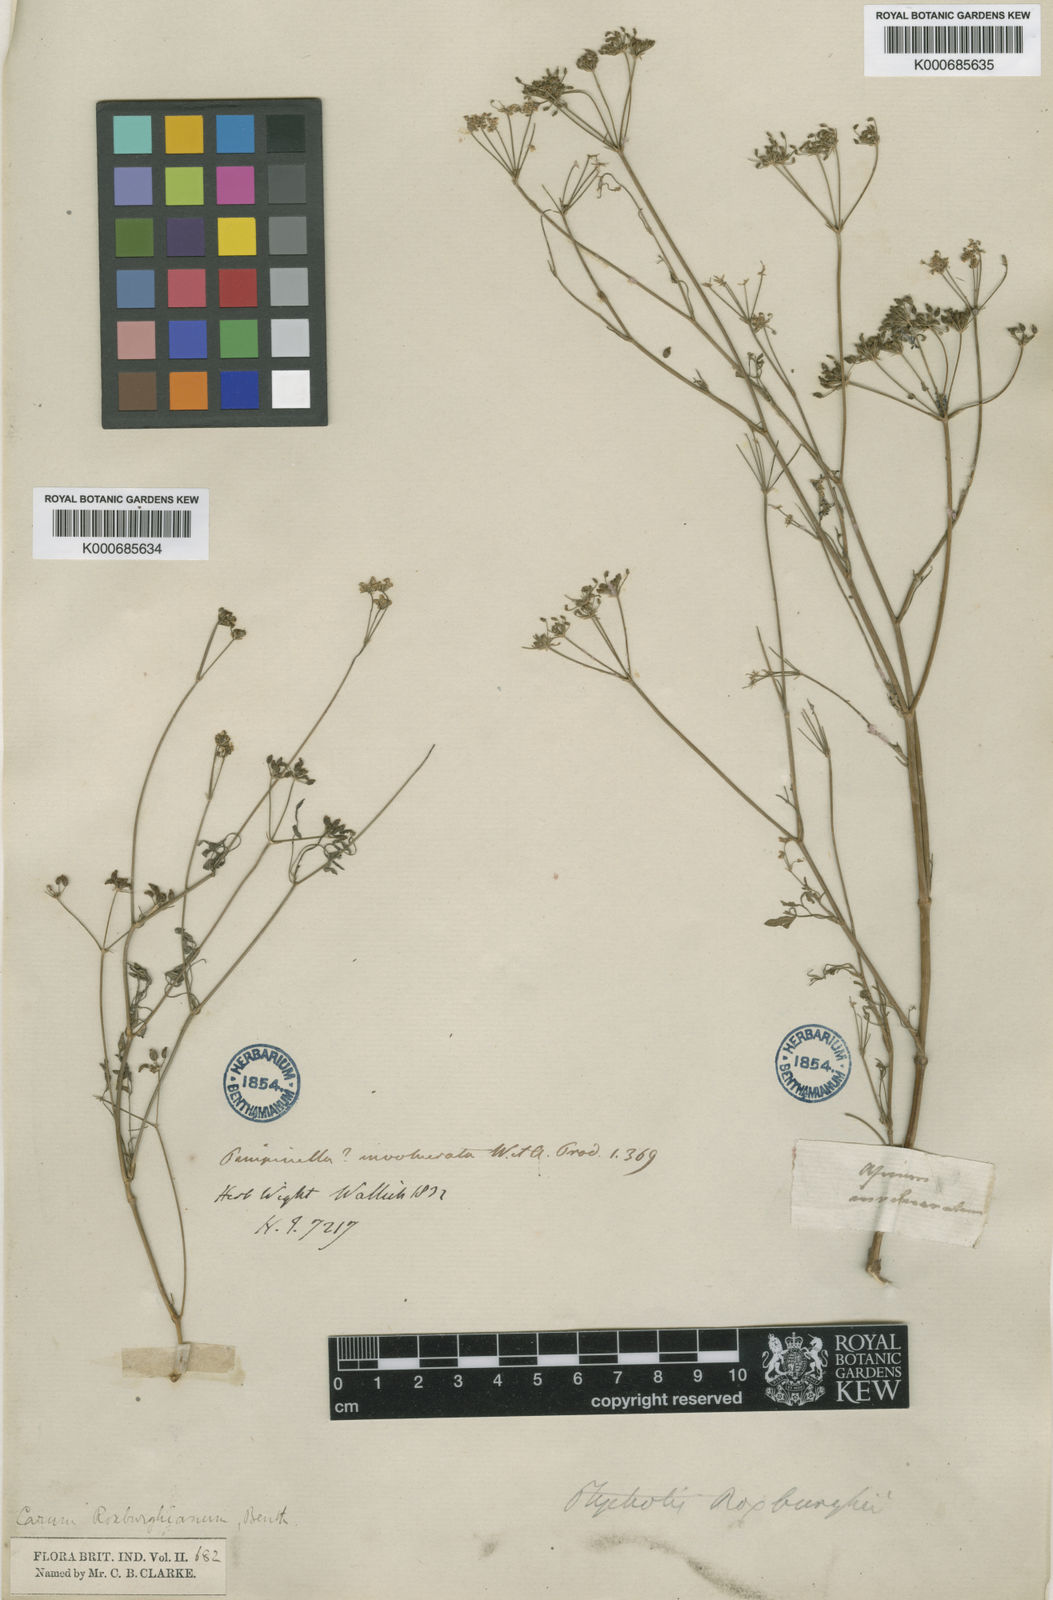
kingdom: Plantae
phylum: Tracheophyta
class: Magnoliopsida
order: Apiales
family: Apiaceae
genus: Psammogeton
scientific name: Psammogeton involucratum
